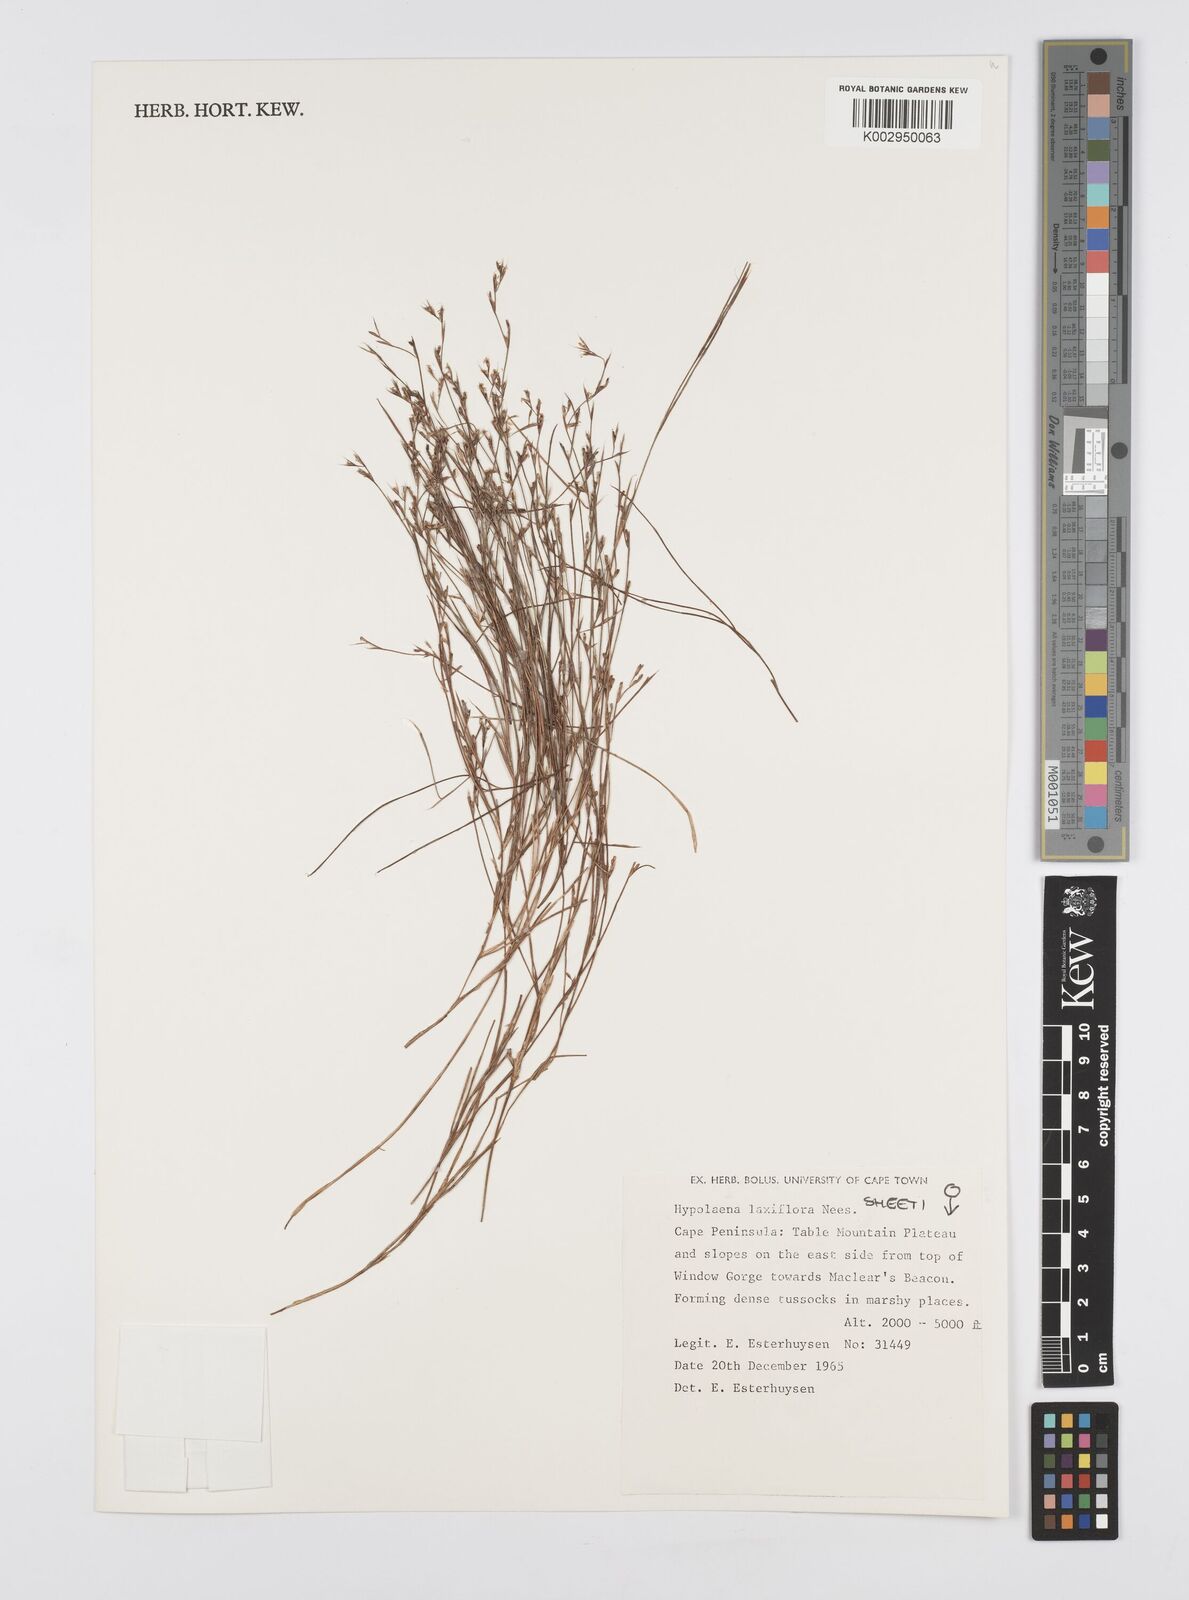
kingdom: Plantae
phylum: Tracheophyta
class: Liliopsida
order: Poales
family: Restionaceae
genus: Anthochortus
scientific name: Anthochortus laxiflorus
